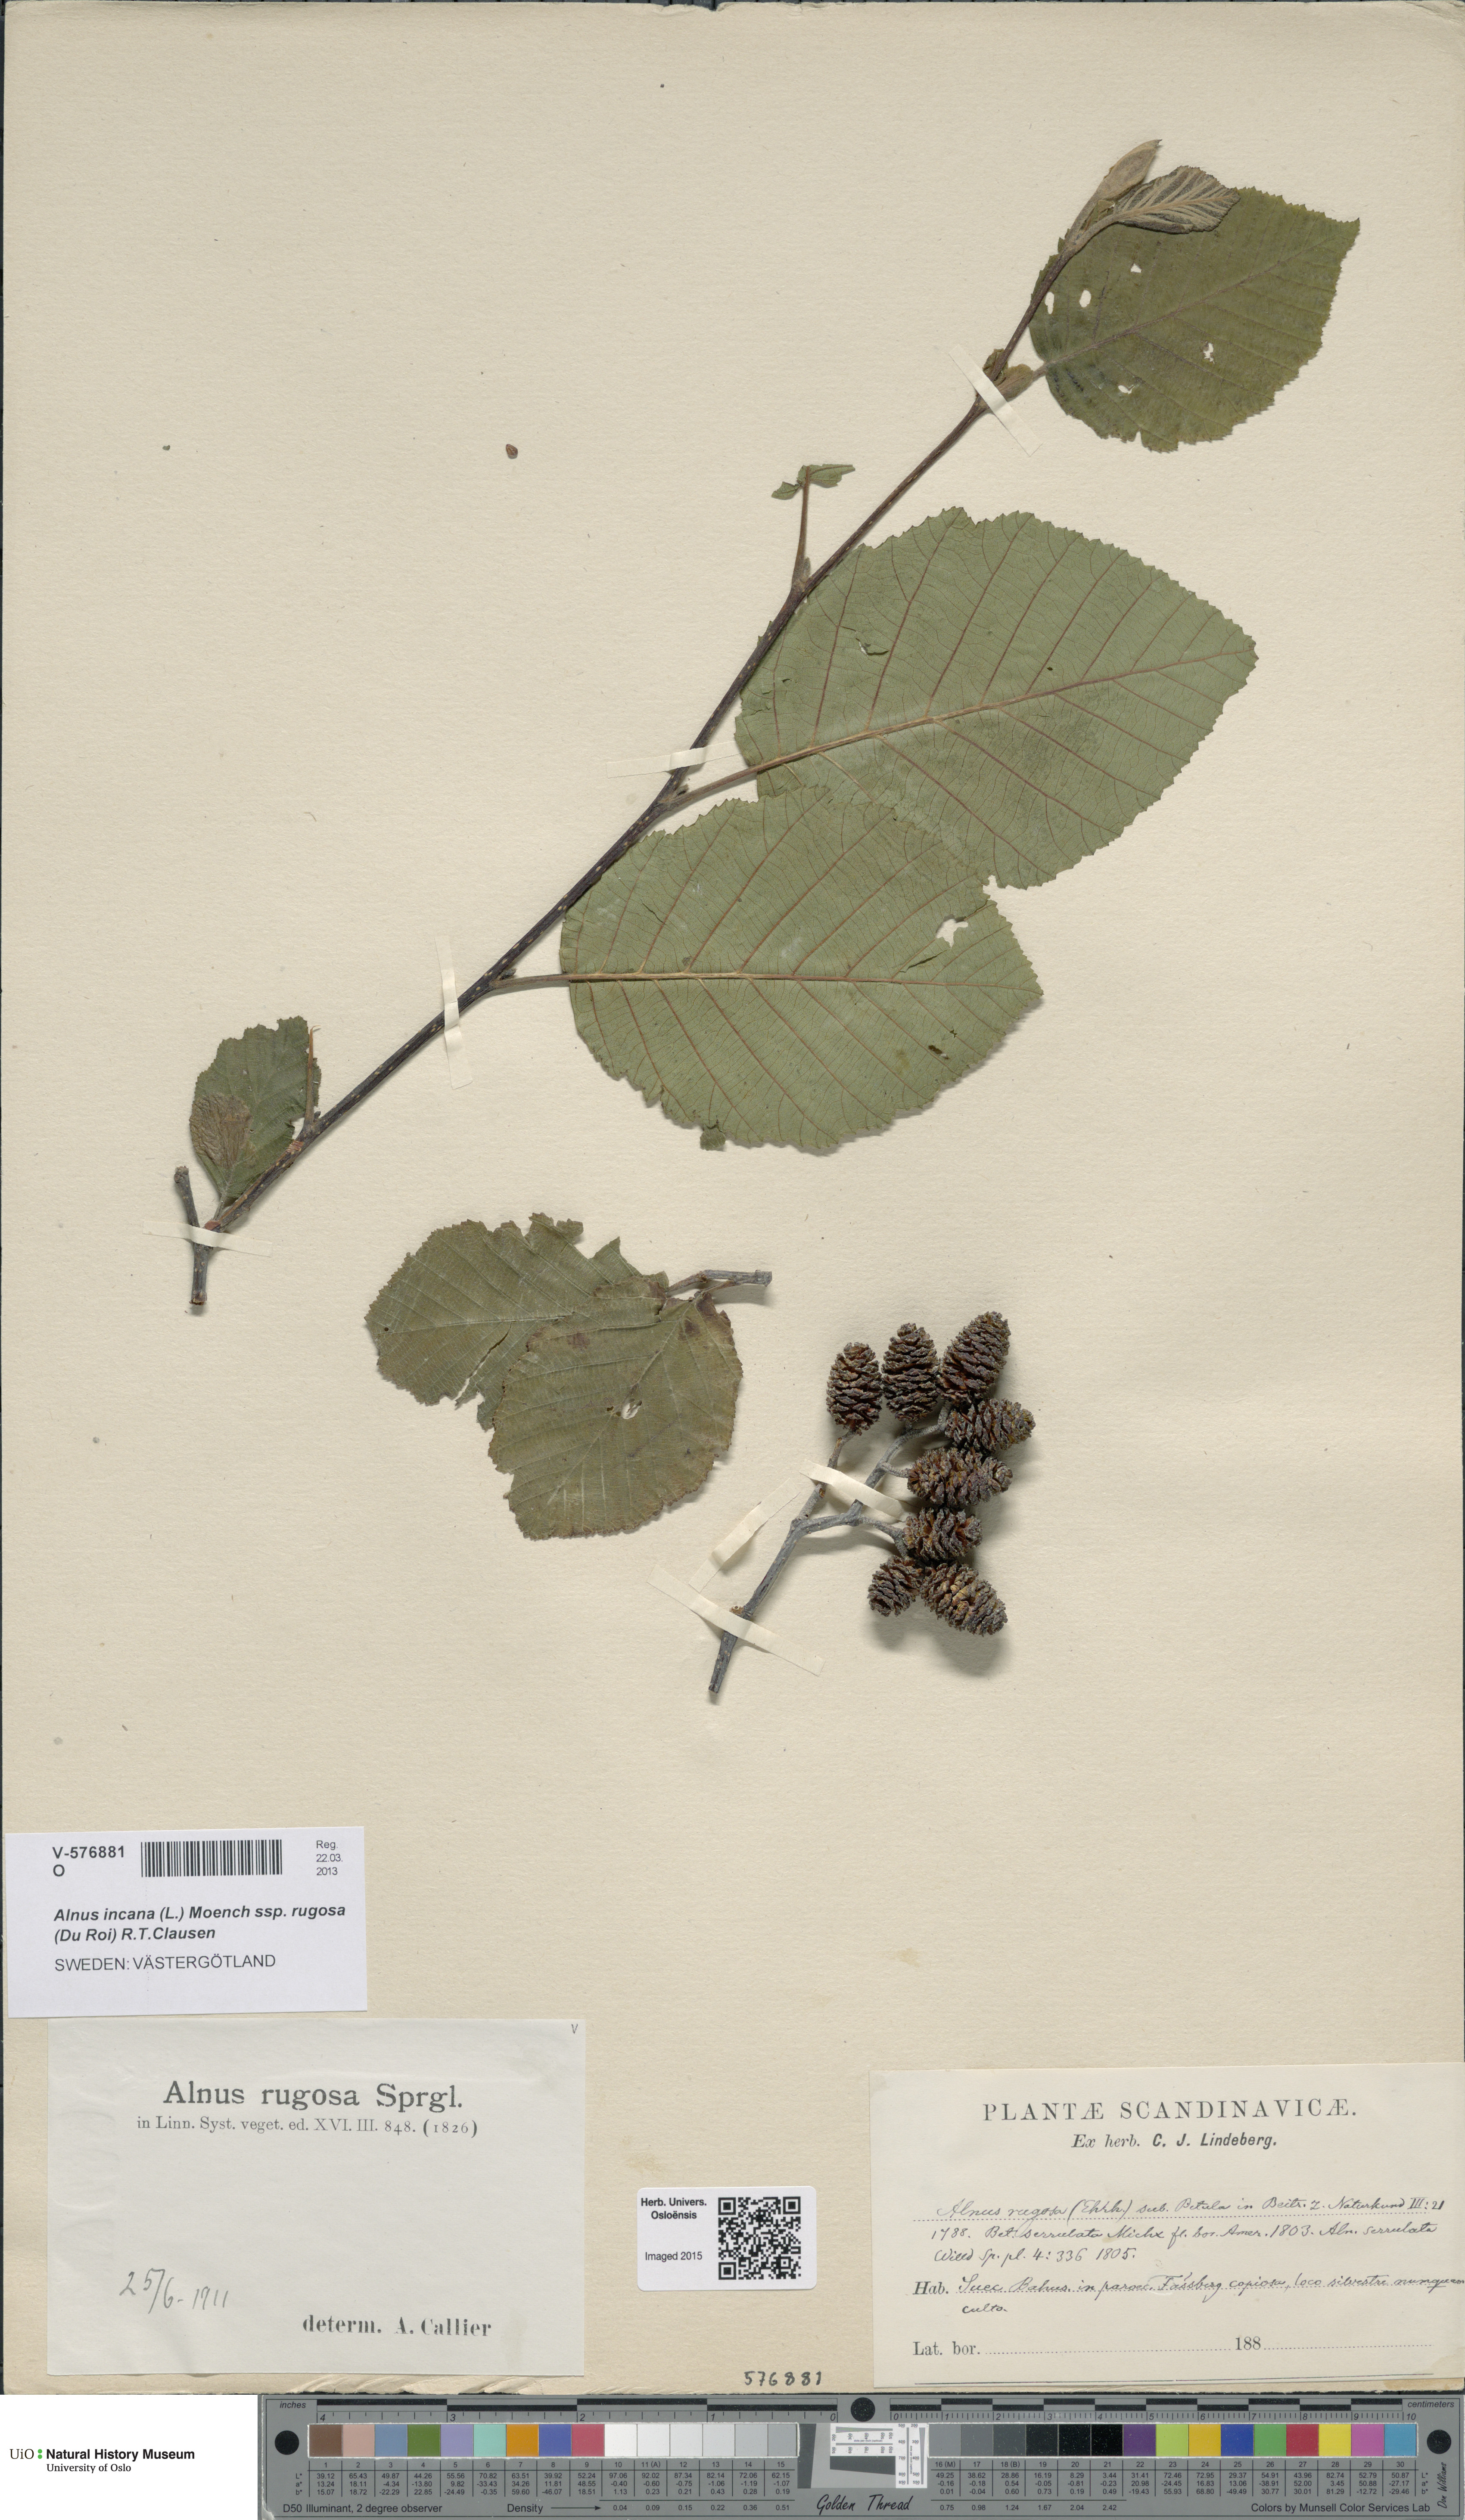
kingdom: Plantae
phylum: Tracheophyta
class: Magnoliopsida
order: Fagales
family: Betulaceae
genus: Alnus
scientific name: Alnus incana
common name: Grey alder
